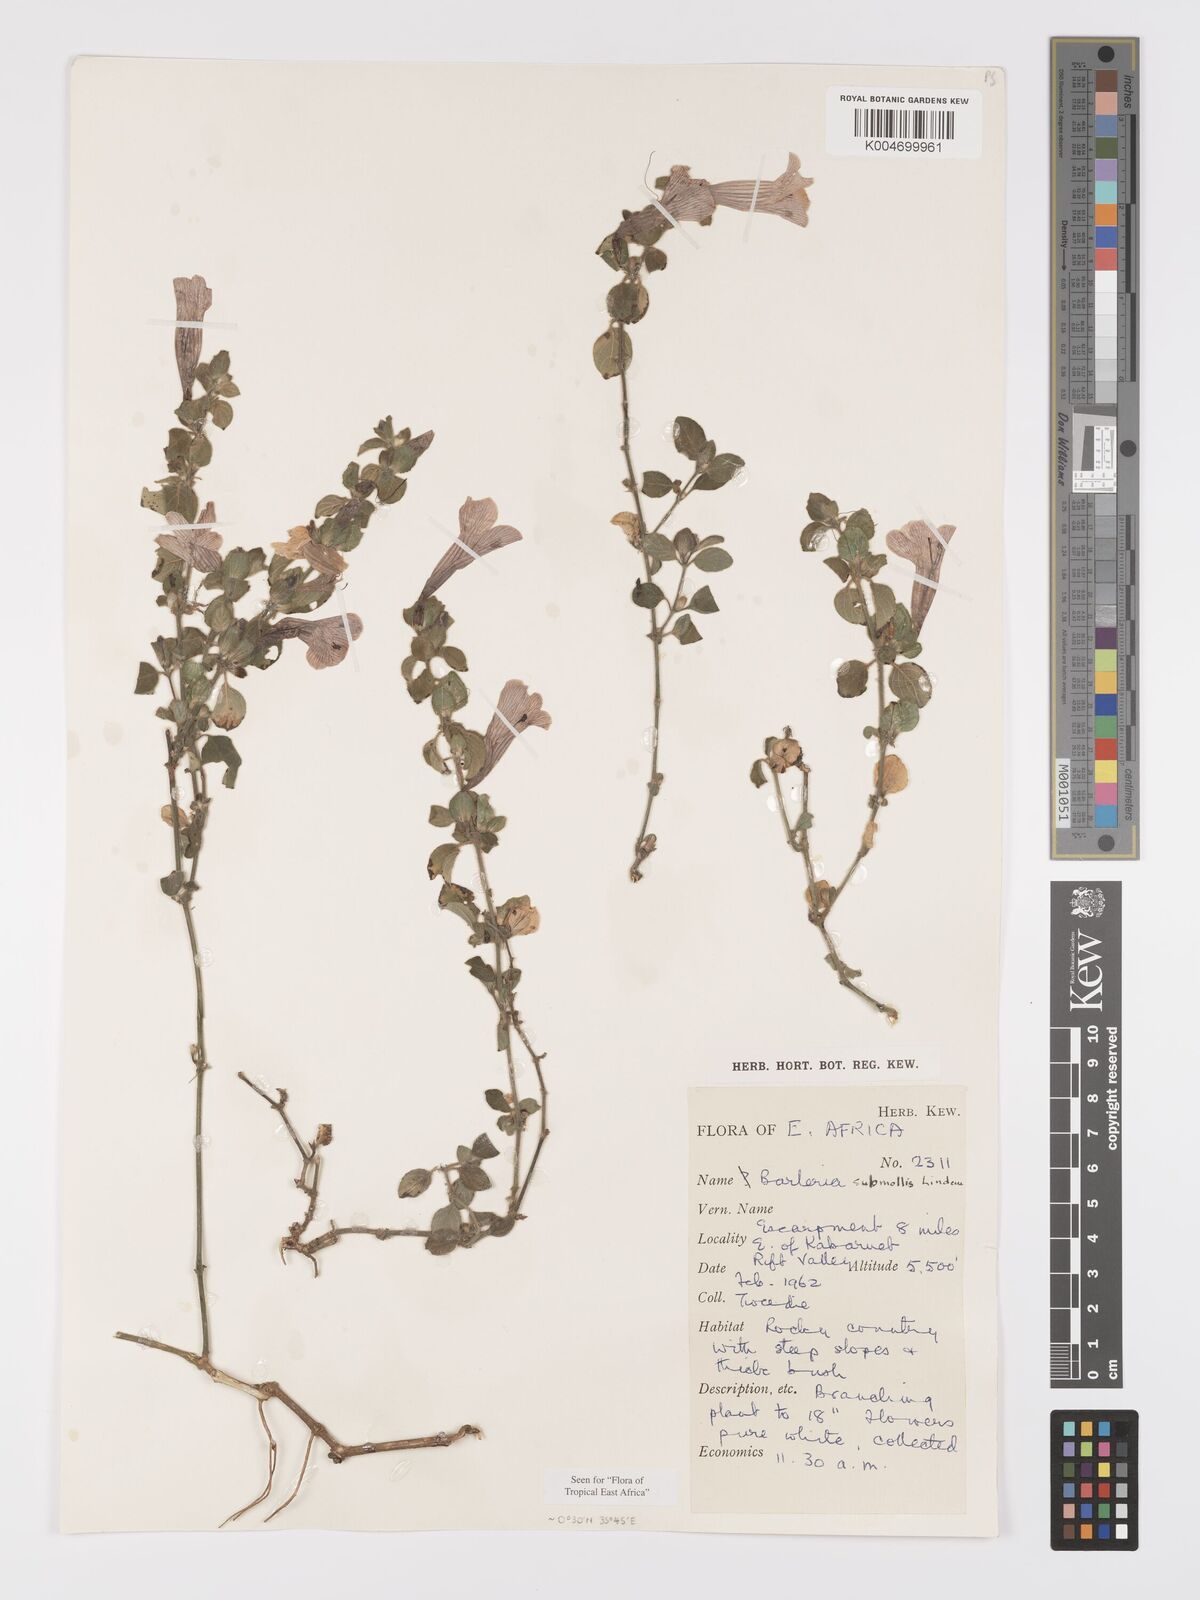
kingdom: Plantae
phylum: Tracheophyta
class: Magnoliopsida
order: Lamiales
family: Acanthaceae
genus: Barleria
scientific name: Barleria submollis
